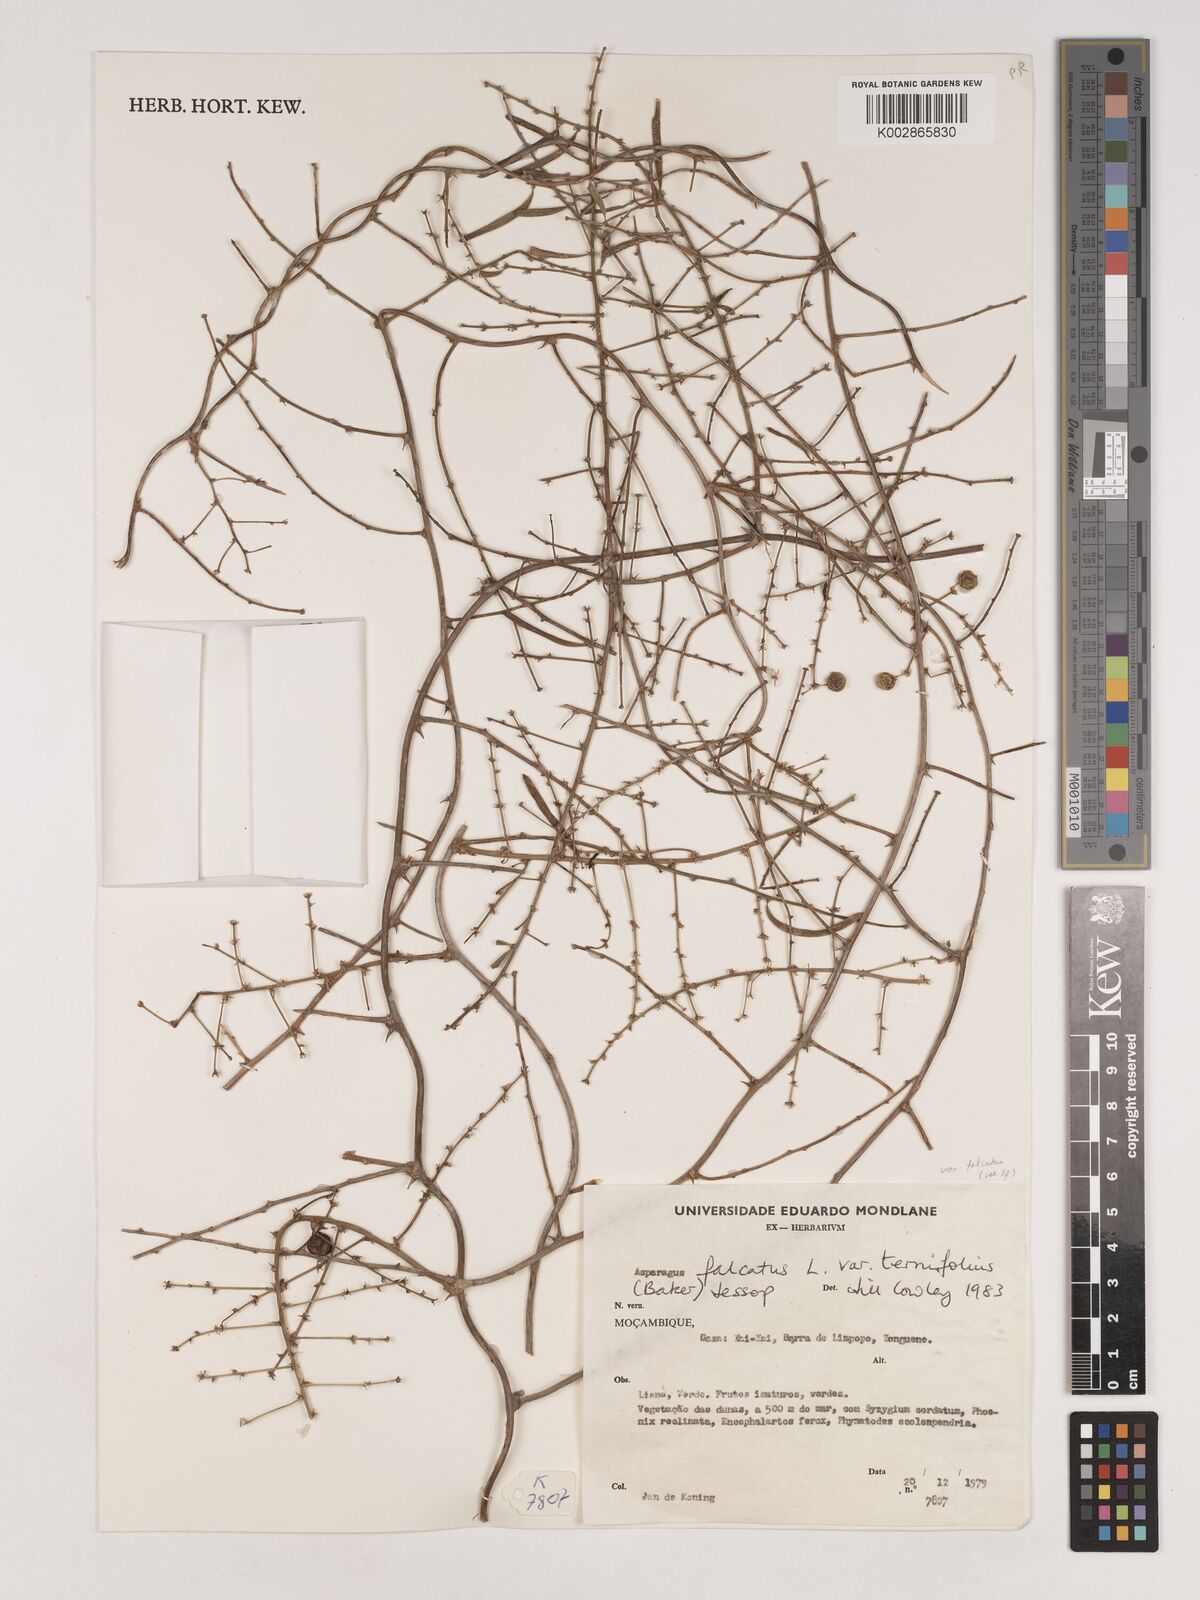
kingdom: Plantae
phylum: Tracheophyta
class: Liliopsida
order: Asparagales
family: Asparagaceae
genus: Asparagus
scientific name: Asparagus falcatus
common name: Asparagus
